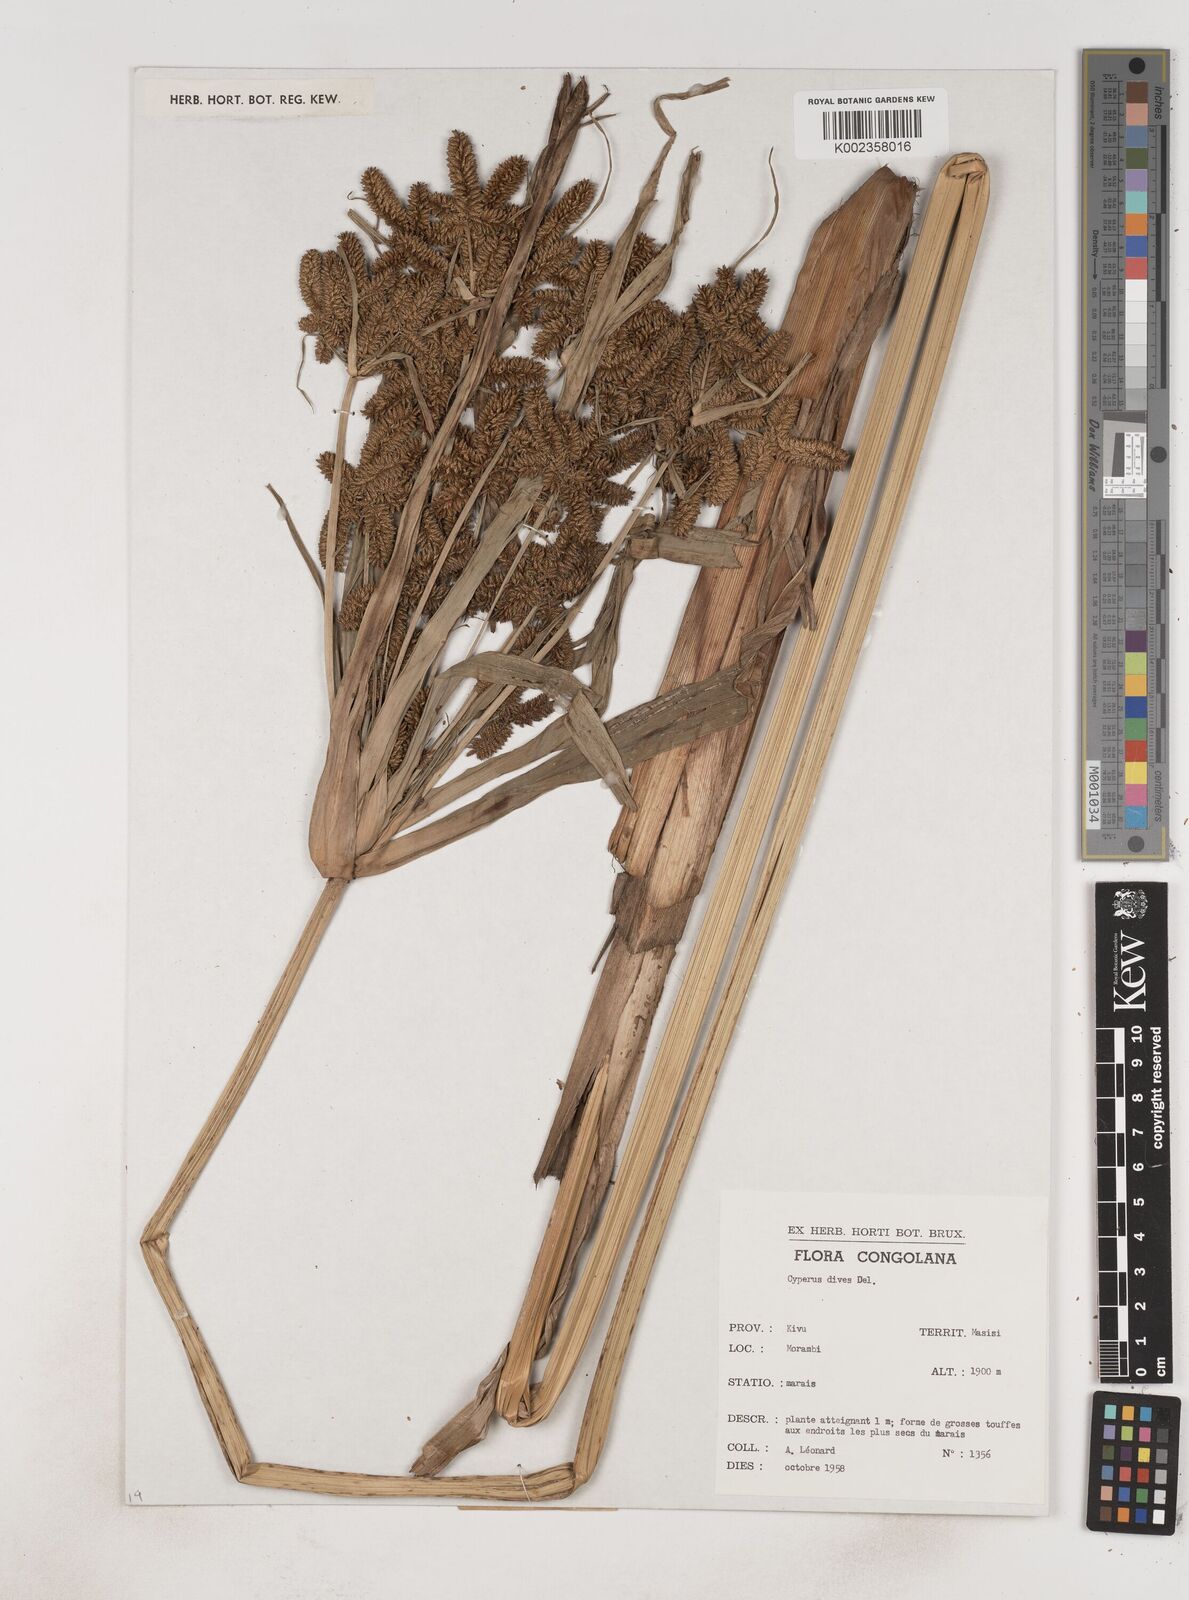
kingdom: Plantae
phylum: Tracheophyta
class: Liliopsida
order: Poales
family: Cyperaceae
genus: Cyperus
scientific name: Cyperus dives
